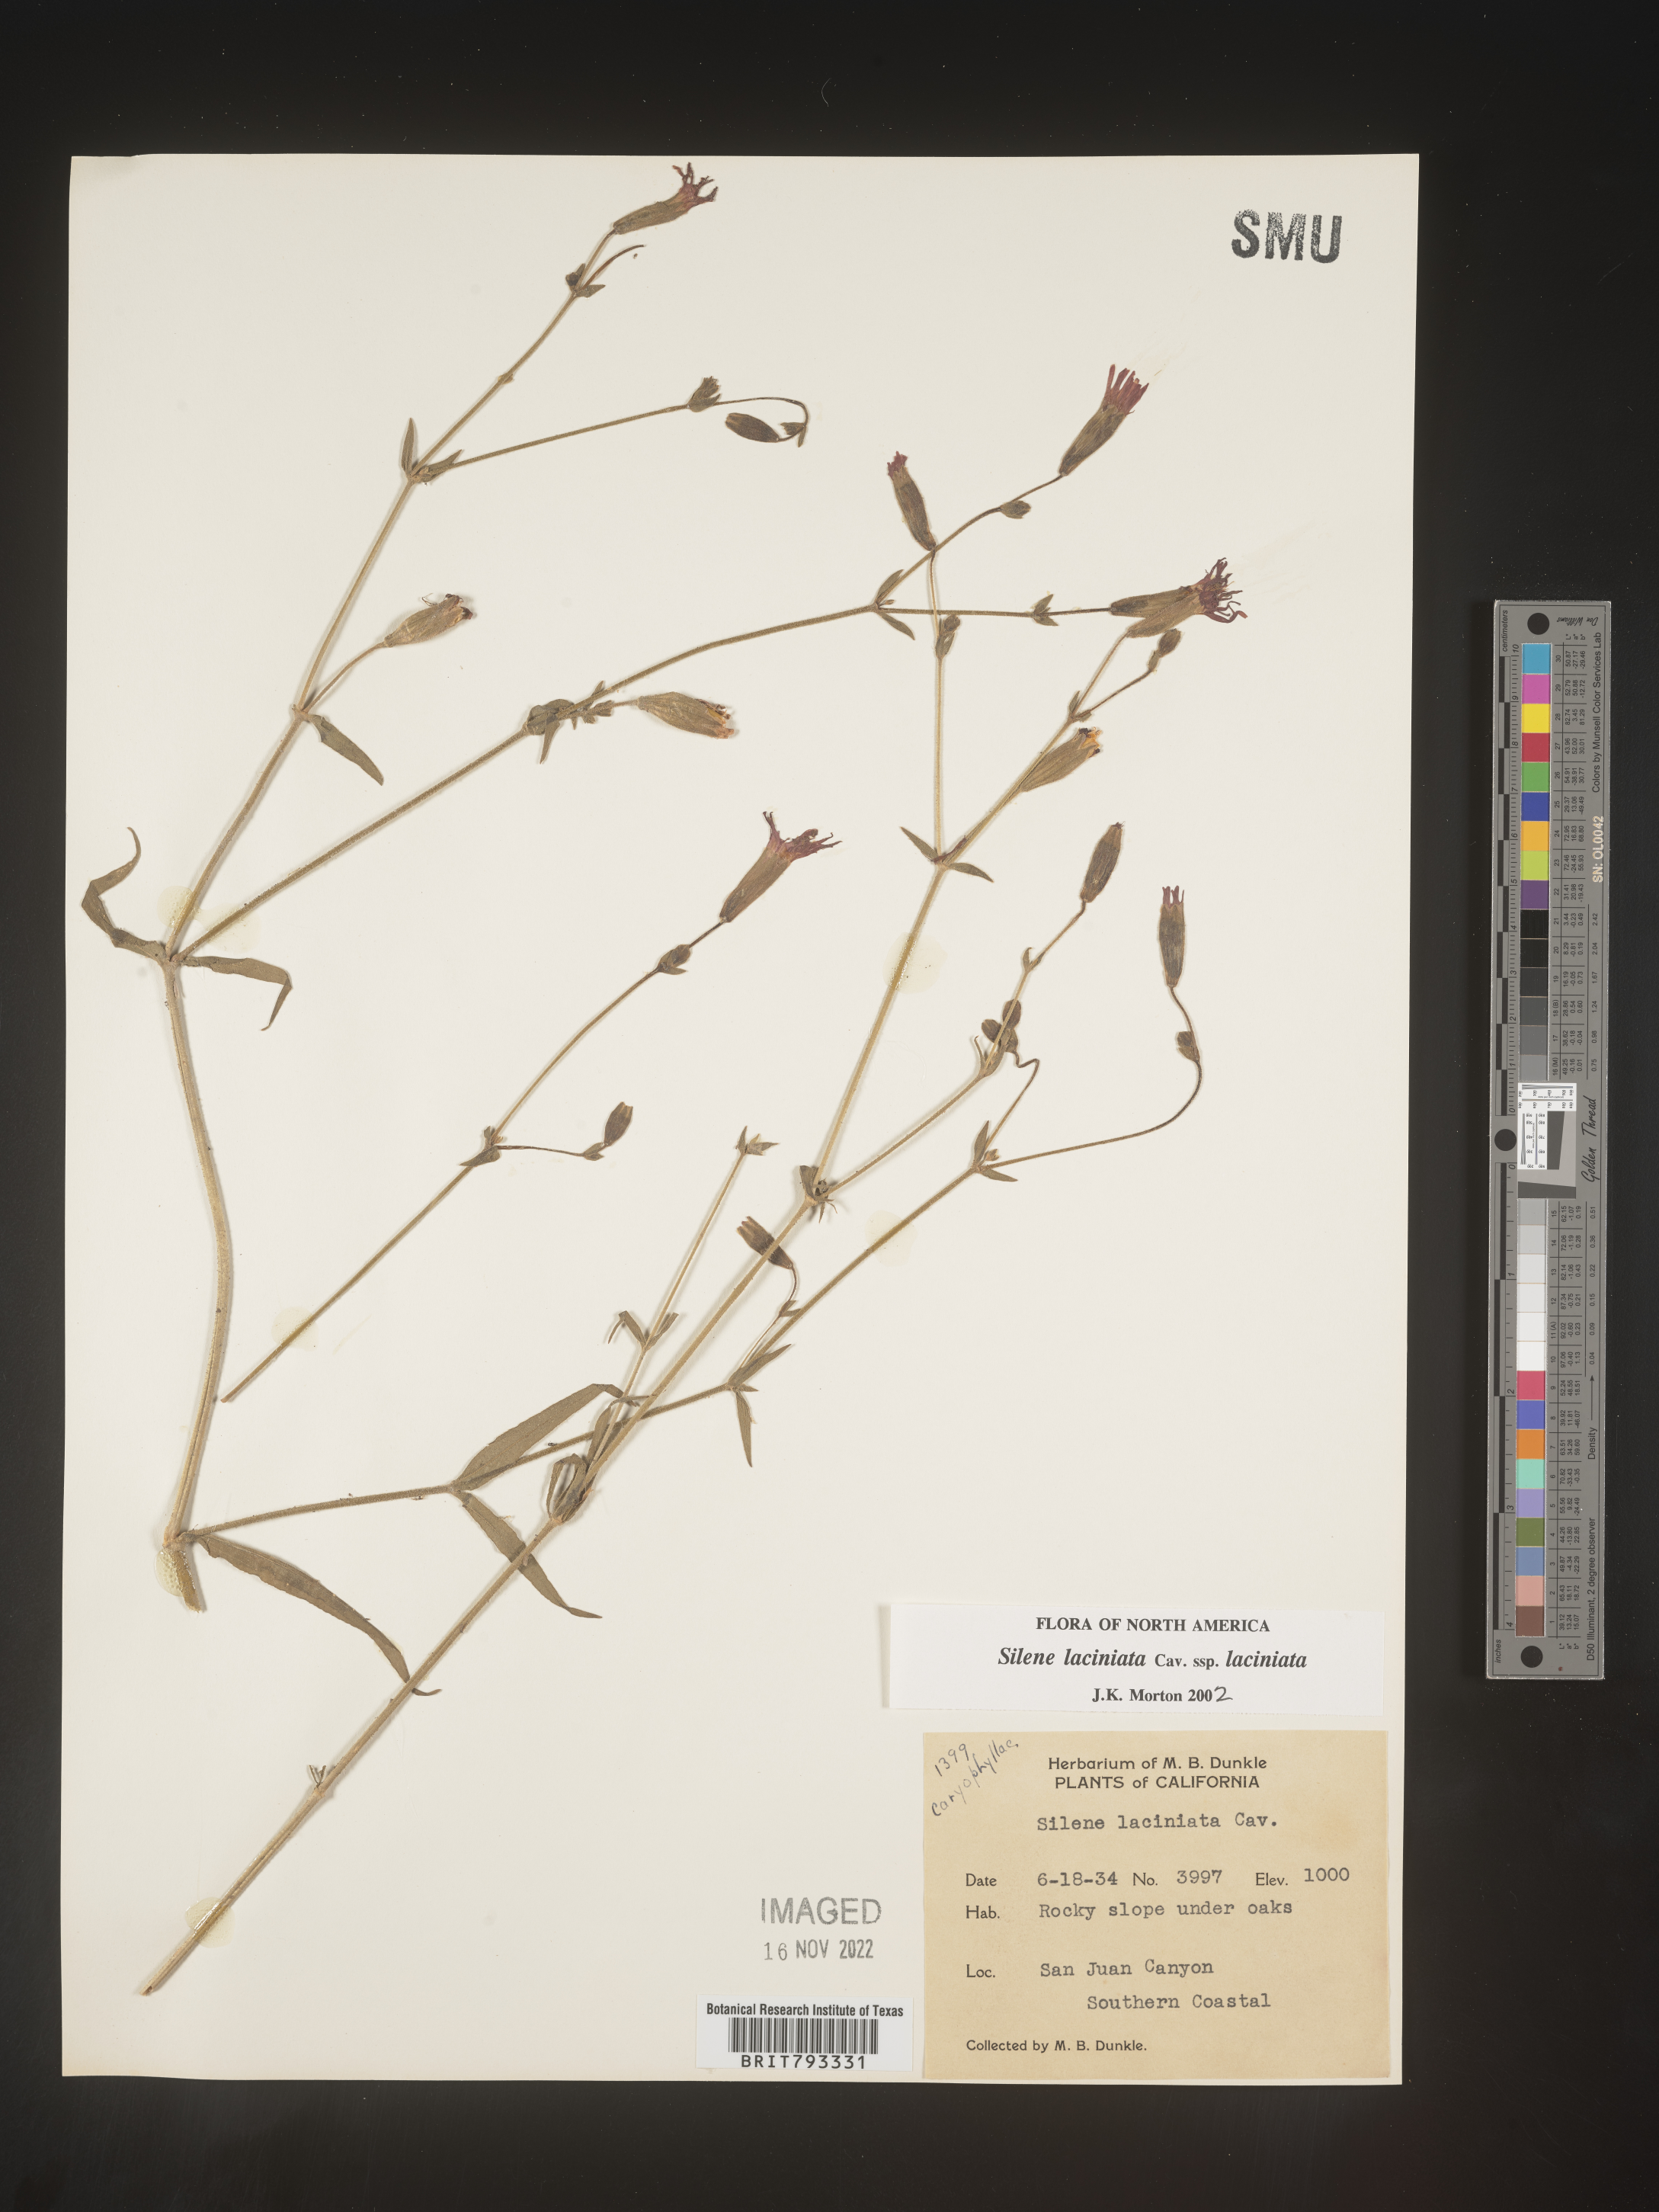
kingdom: Plantae
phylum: Tracheophyta
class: Magnoliopsida
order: Caryophyllales
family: Caryophyllaceae
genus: Silene
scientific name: Silene laciniata
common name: Indian-pink
